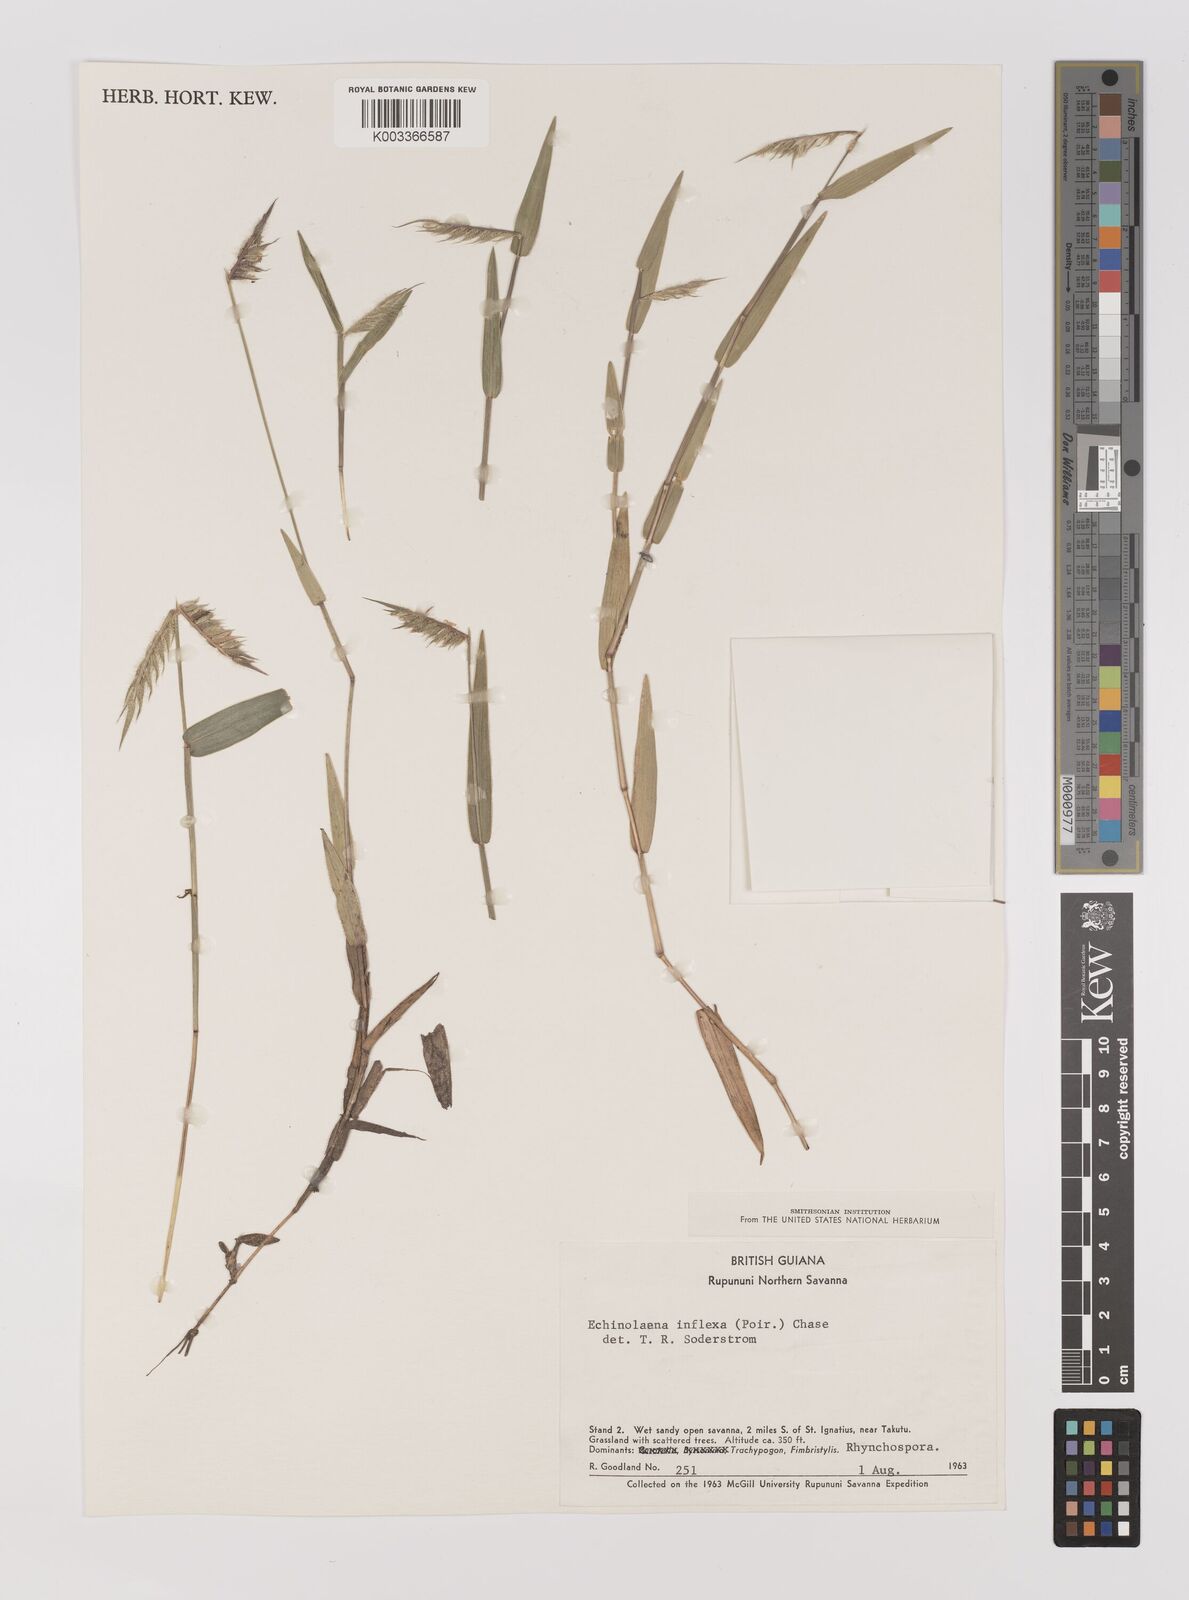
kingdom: Plantae
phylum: Tracheophyta
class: Liliopsida
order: Poales
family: Poaceae
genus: Echinolaena
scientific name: Echinolaena inflexa
